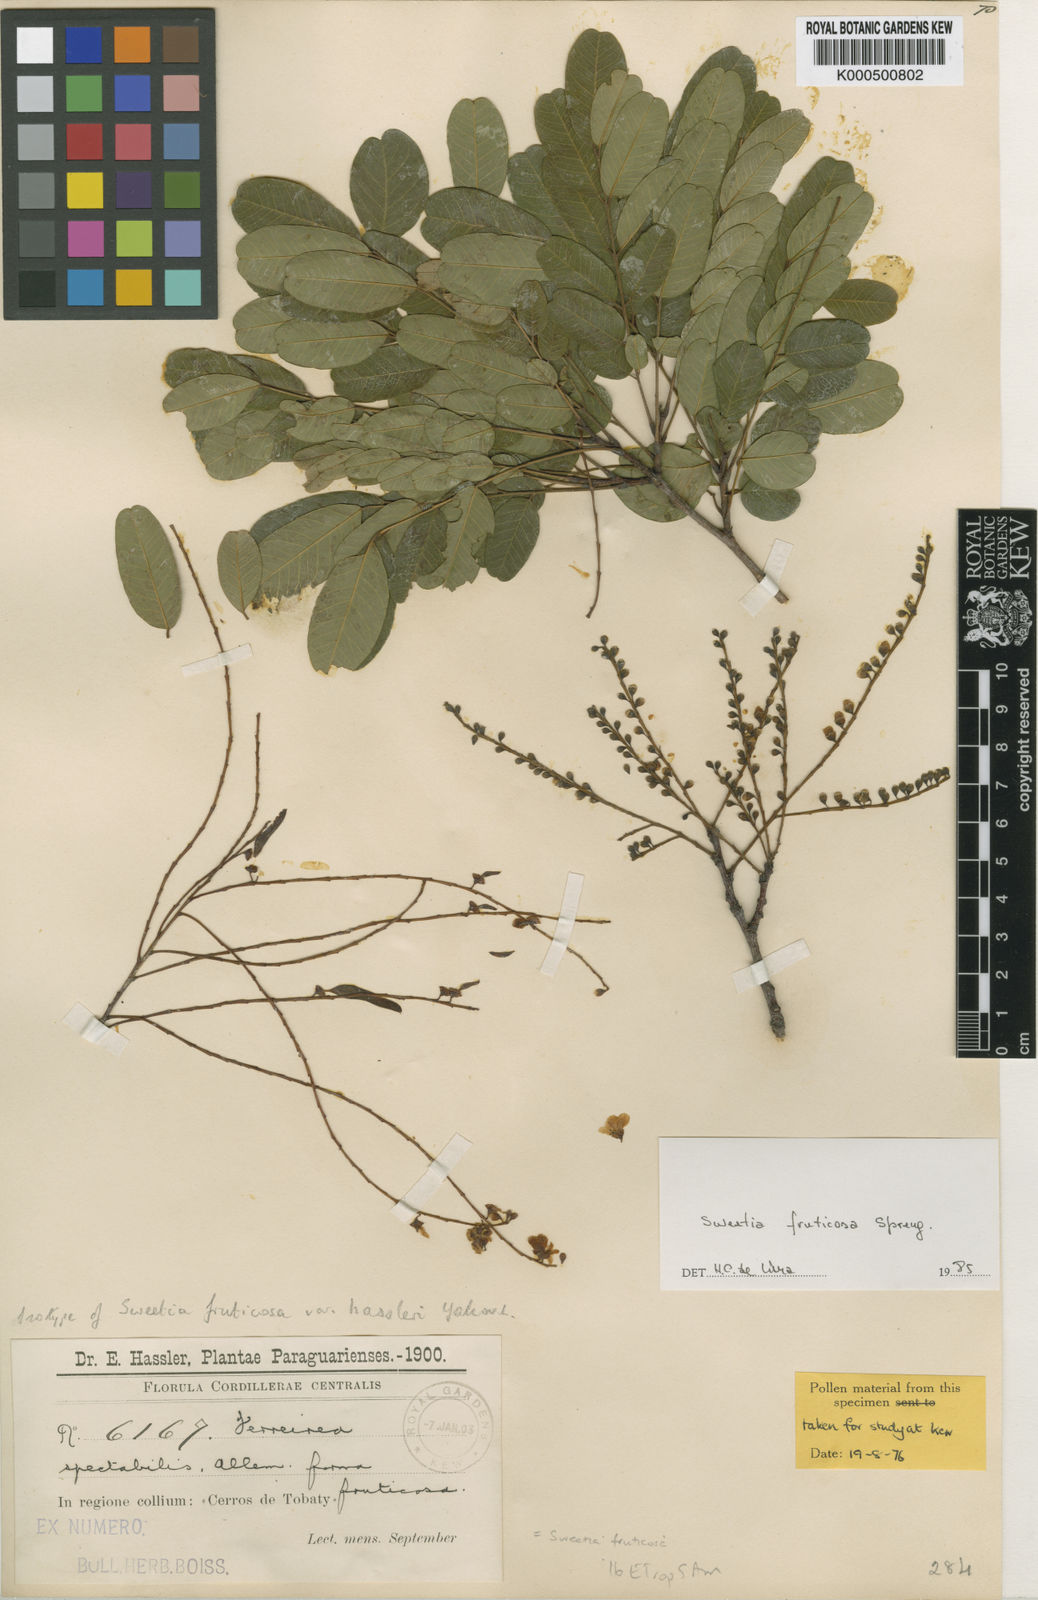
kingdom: Plantae
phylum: Tracheophyta
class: Magnoliopsida
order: Fabales
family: Fabaceae
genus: Sweetia
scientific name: Sweetia fruticosa
